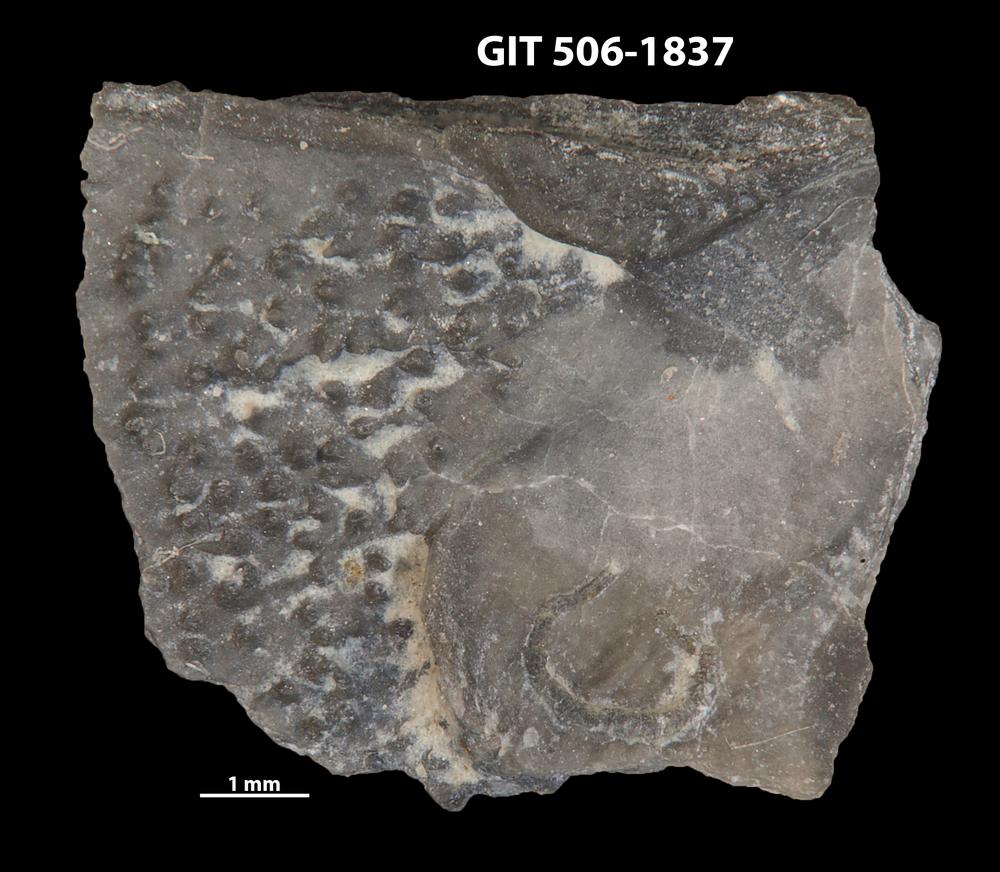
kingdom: Animalia
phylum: Brachiopoda
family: Strophomenidae
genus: Leptaena
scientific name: Leptaena purpurea
